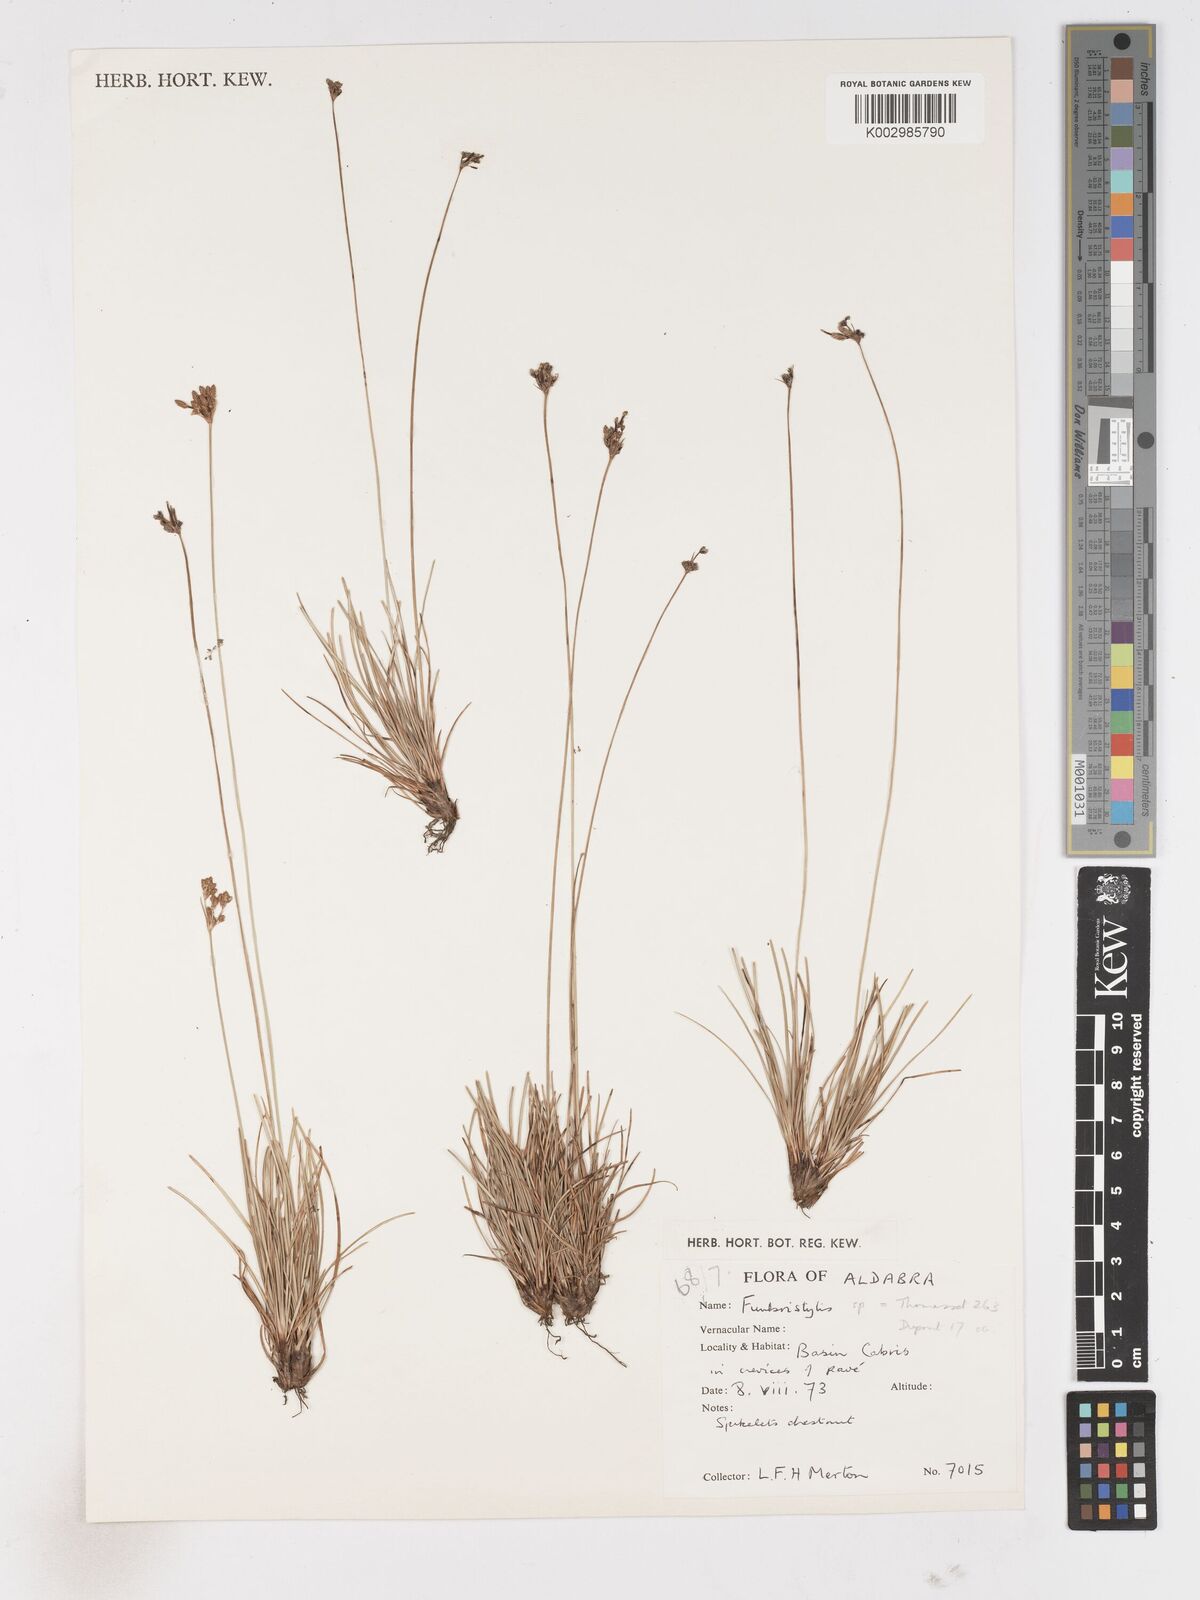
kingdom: Plantae
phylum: Tracheophyta
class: Liliopsida
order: Poales
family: Cyperaceae
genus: Fimbristylis
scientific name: Fimbristylis
